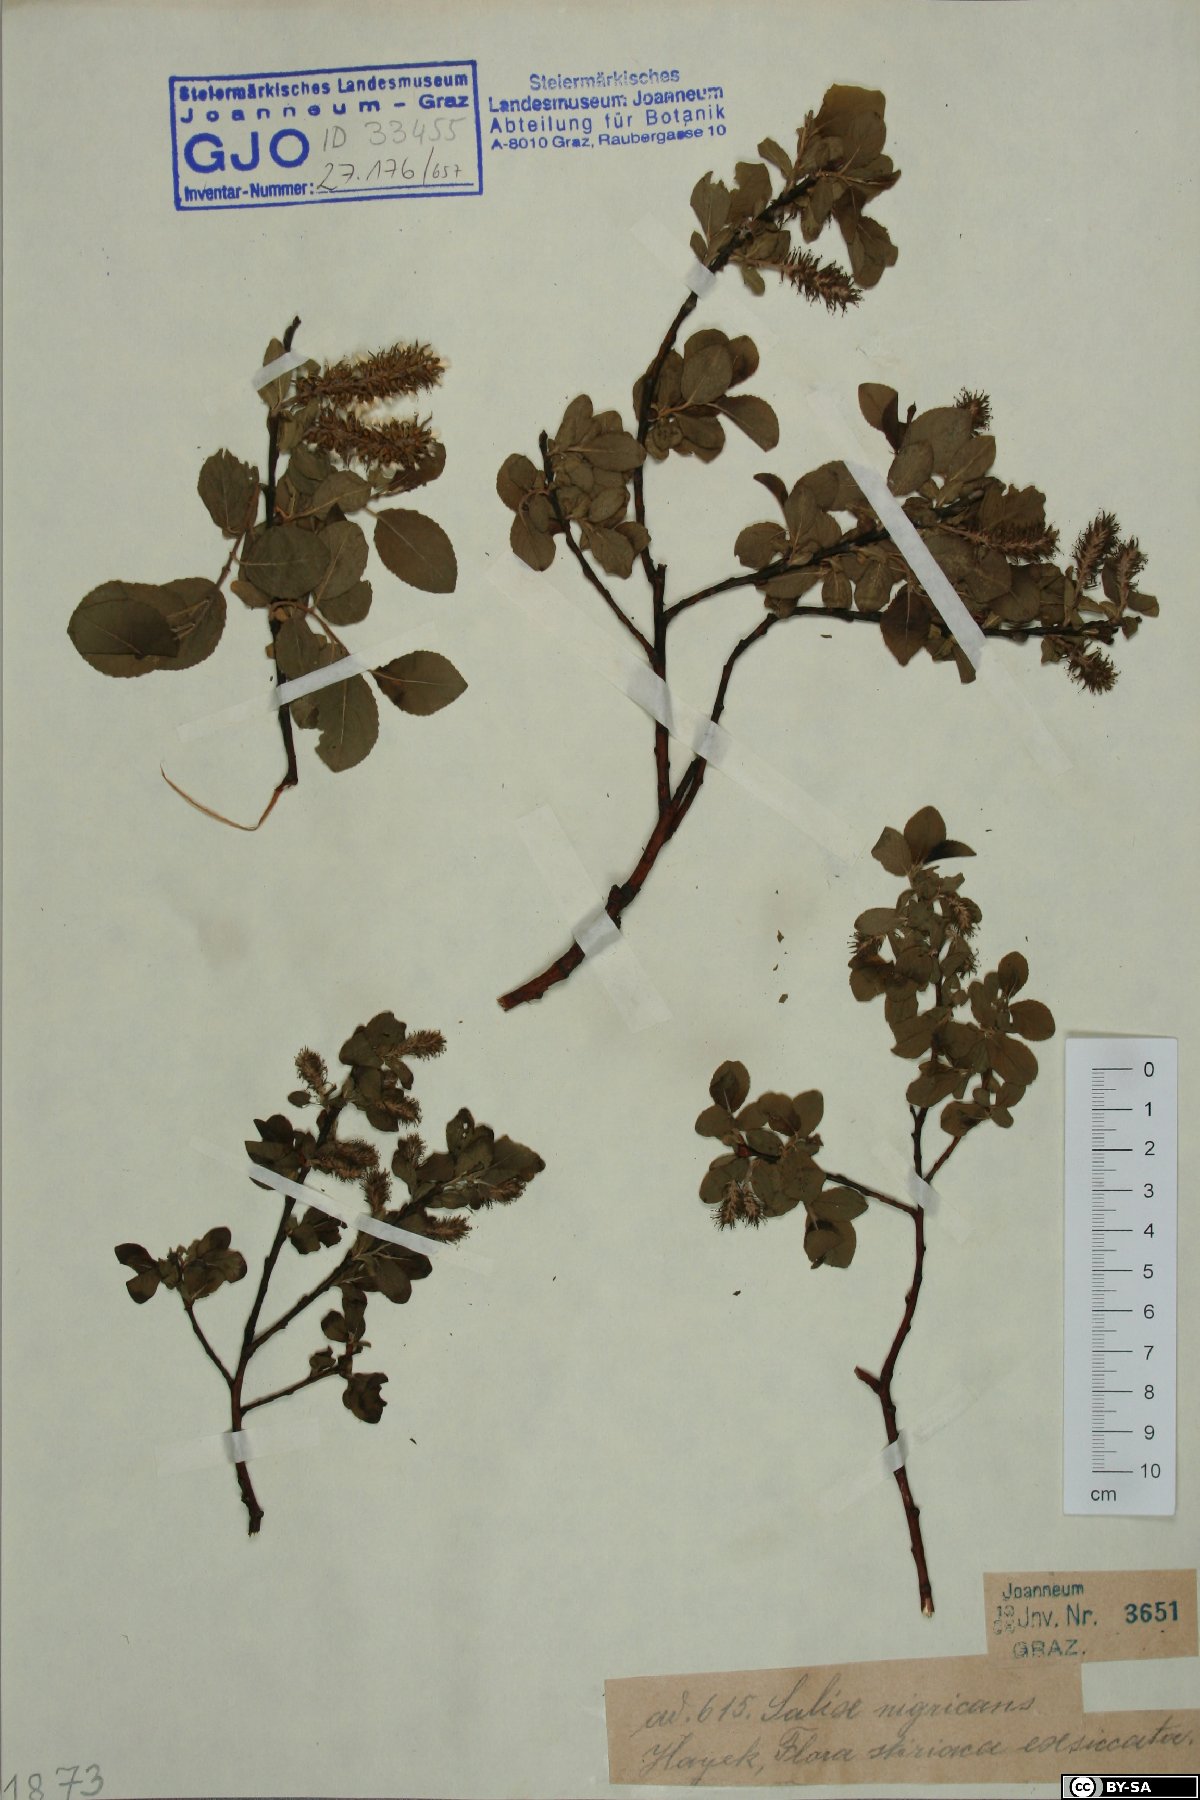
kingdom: Plantae
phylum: Tracheophyta
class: Magnoliopsida
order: Malpighiales
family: Salicaceae
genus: Salix
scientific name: Salix myrsinifolia
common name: Dark-leaved willow
